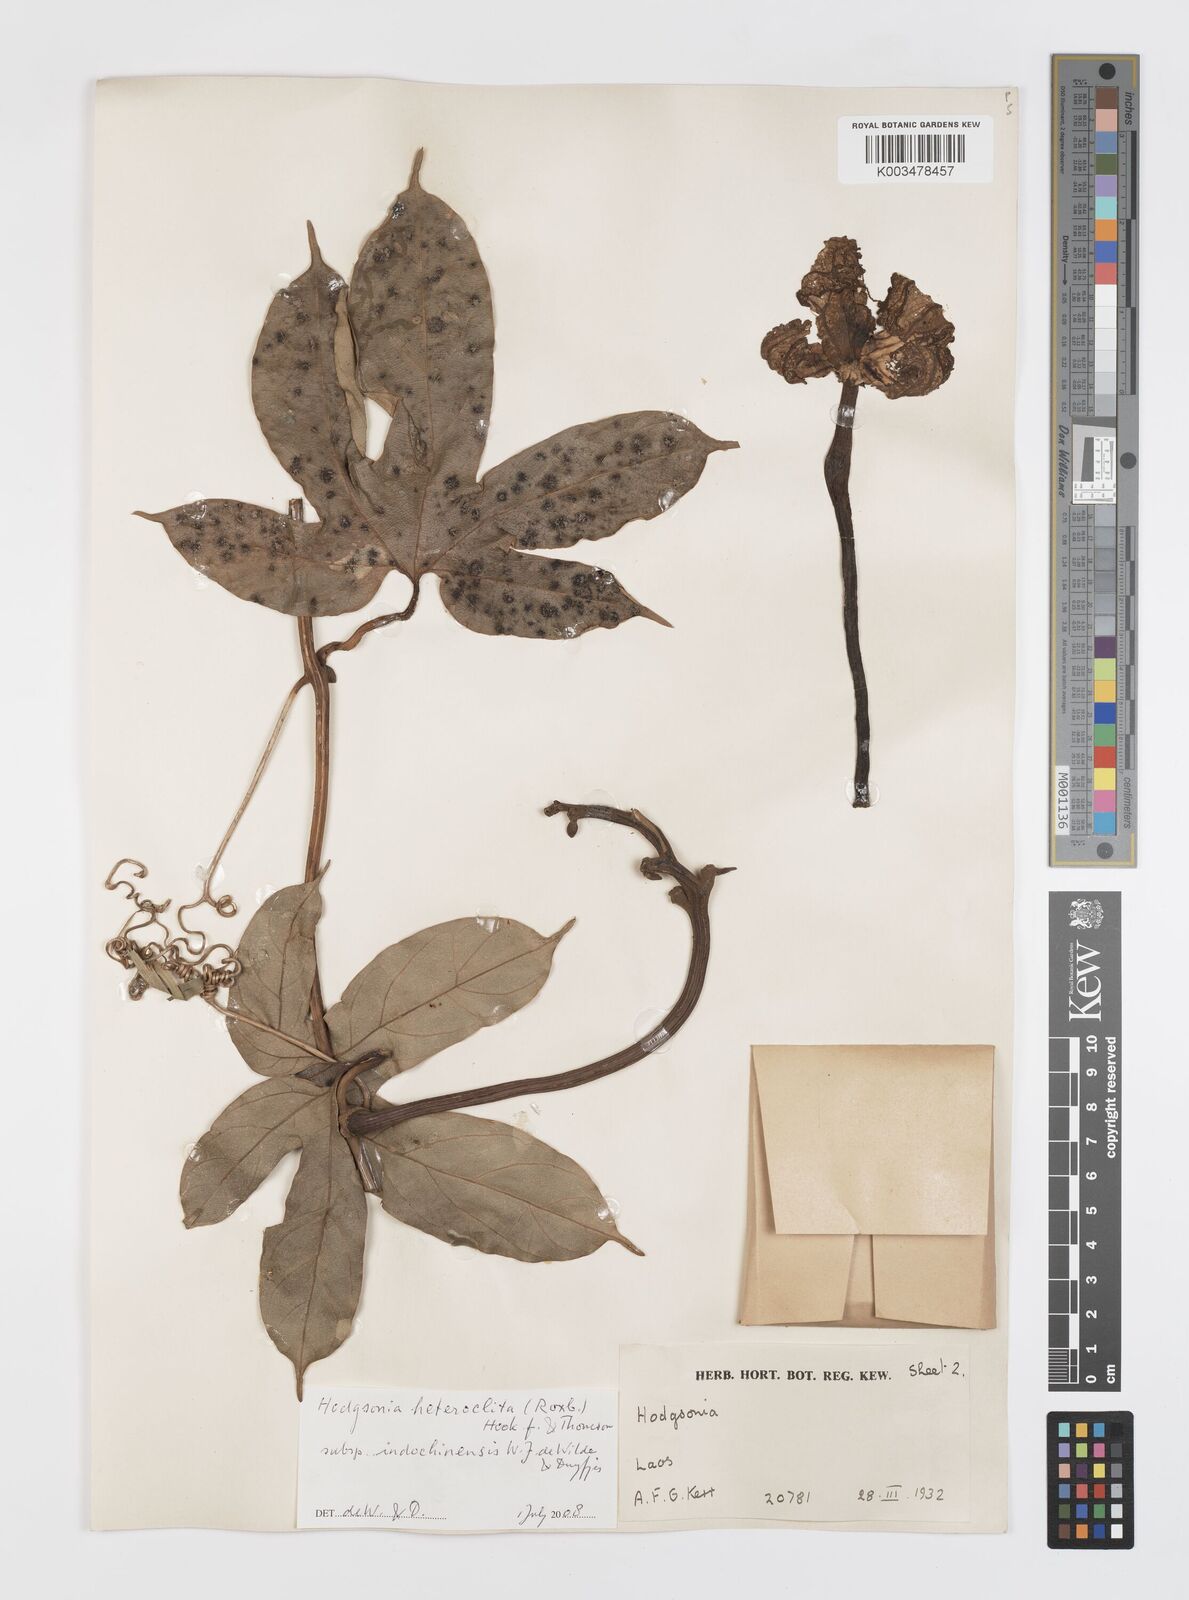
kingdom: Plantae
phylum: Tracheophyta
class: Magnoliopsida
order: Cucurbitales
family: Cucurbitaceae
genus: Hodgsonia
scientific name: Hodgsonia macrocarpa
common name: Chinese lardfruit
